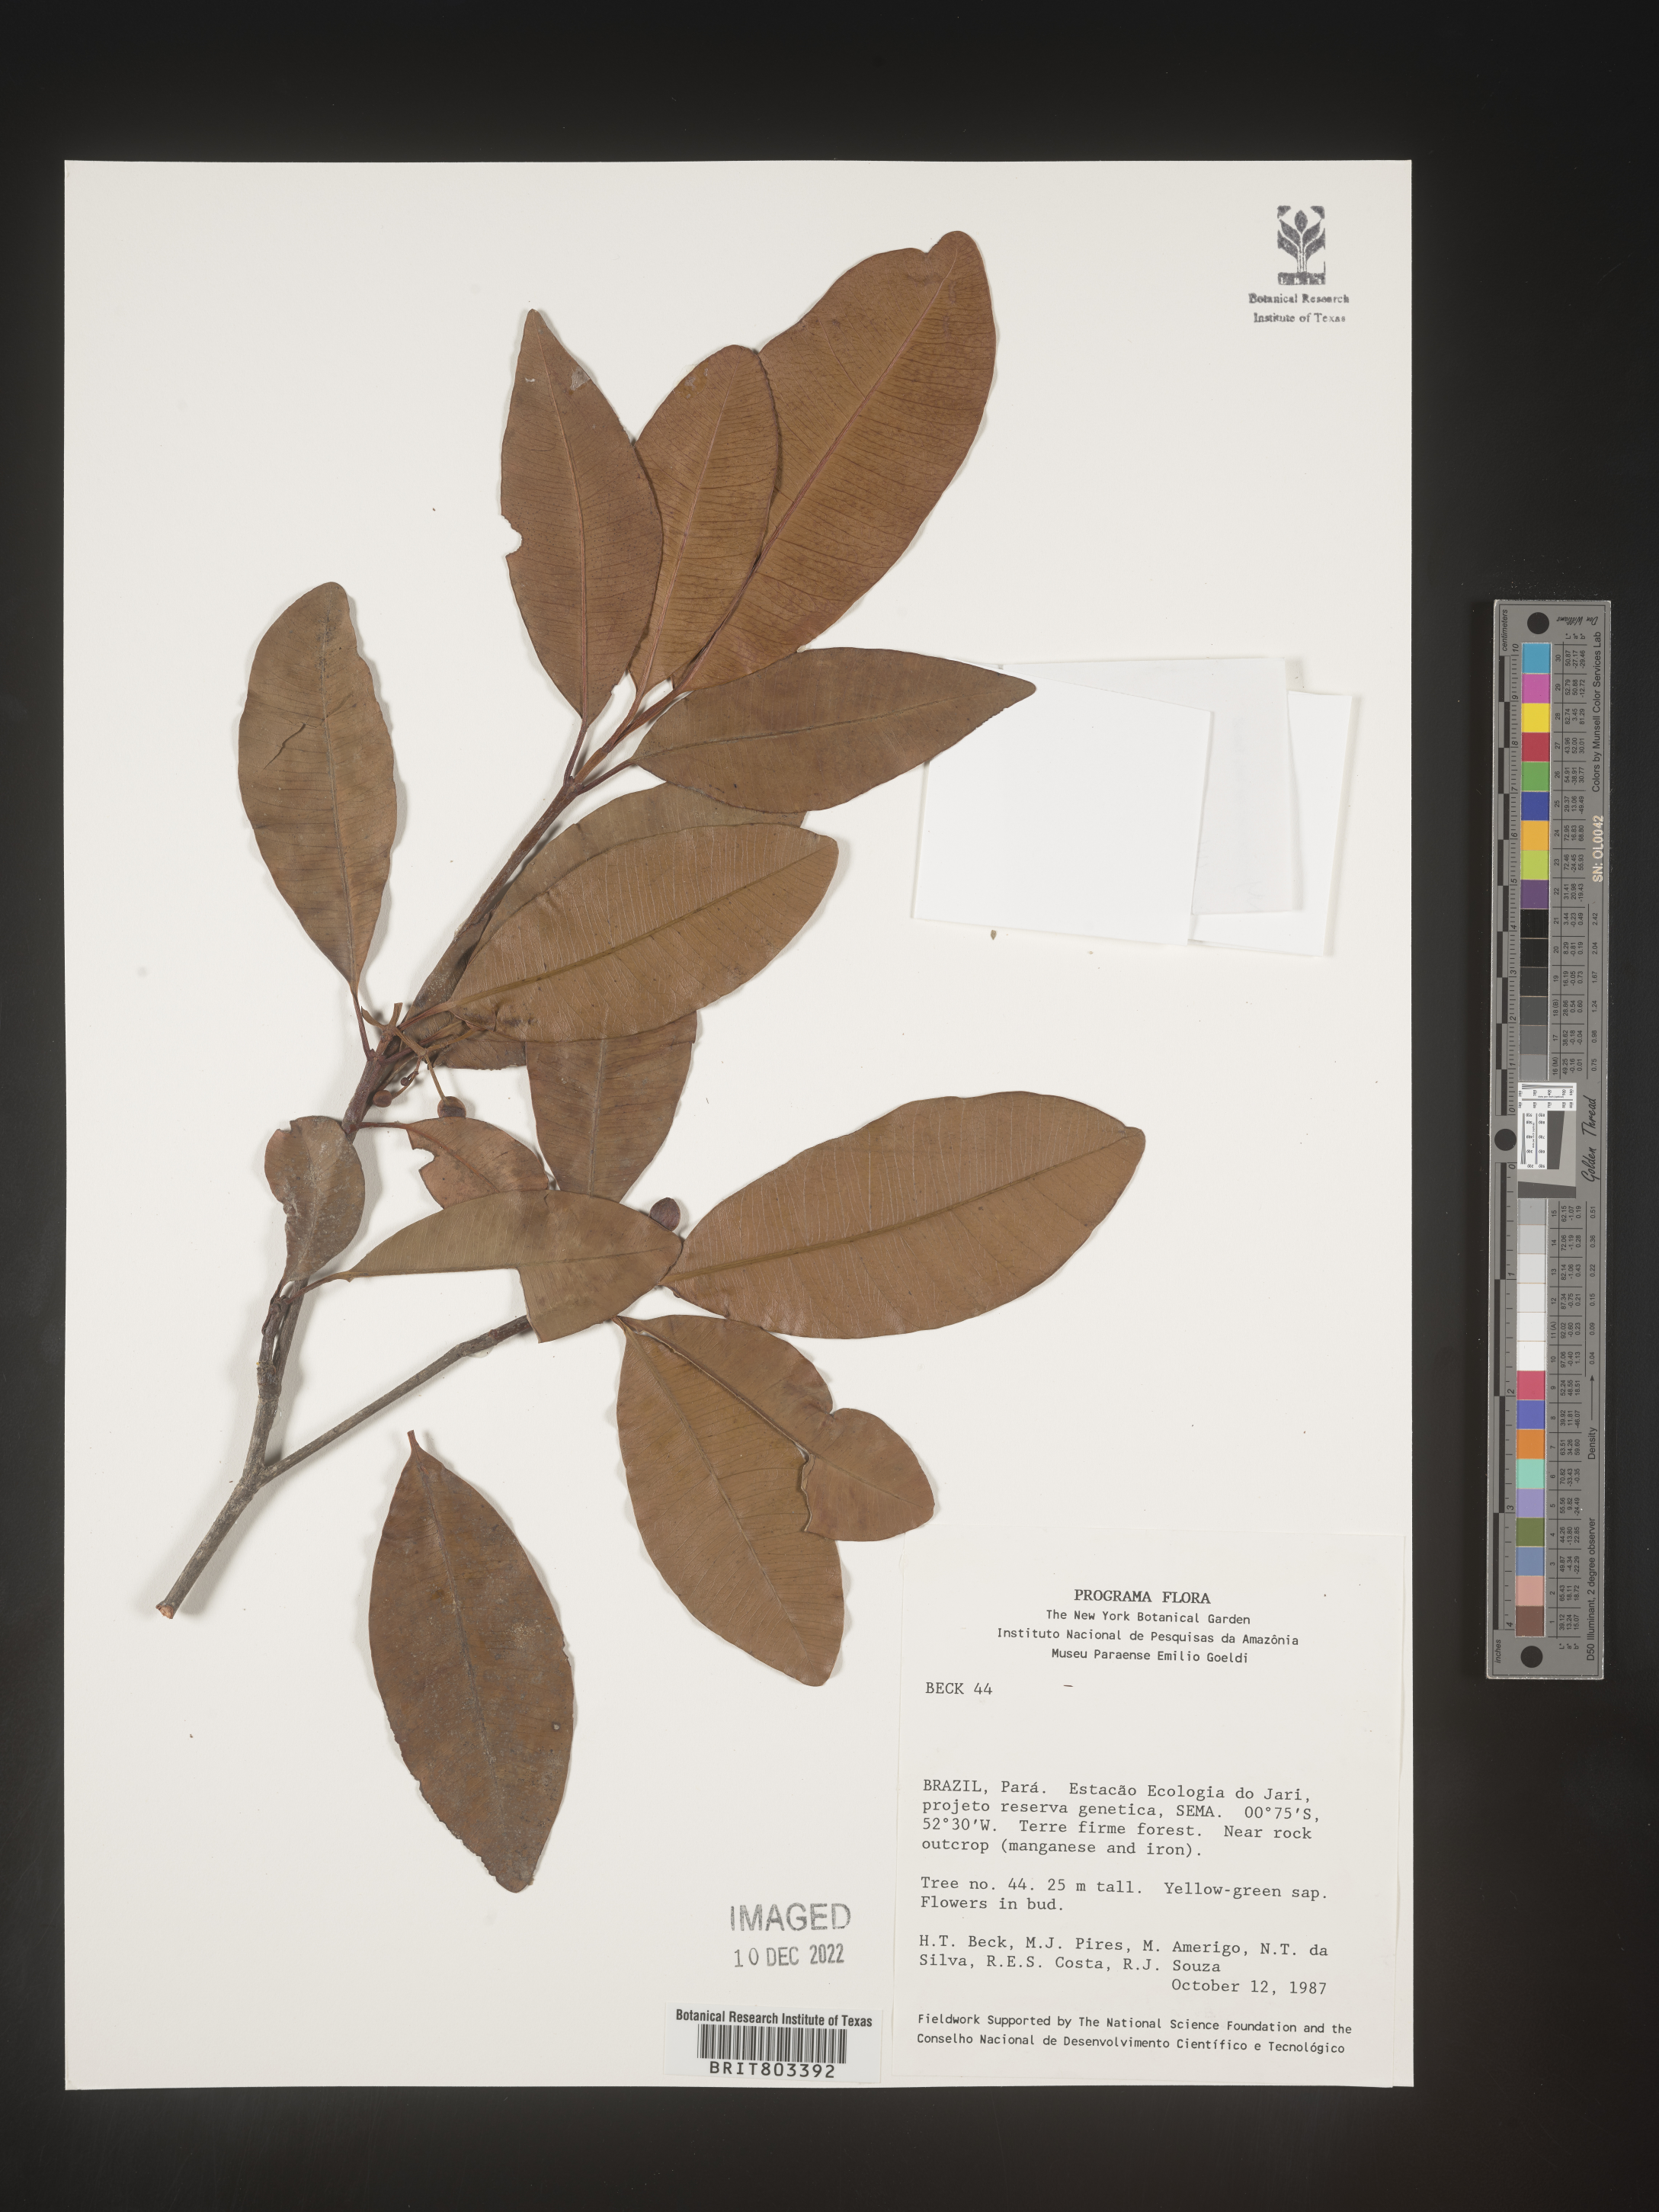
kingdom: Plantae
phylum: Tracheophyta
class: Magnoliopsida
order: Malpighiales
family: Clusiaceae
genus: Tovomita
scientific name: Tovomita
